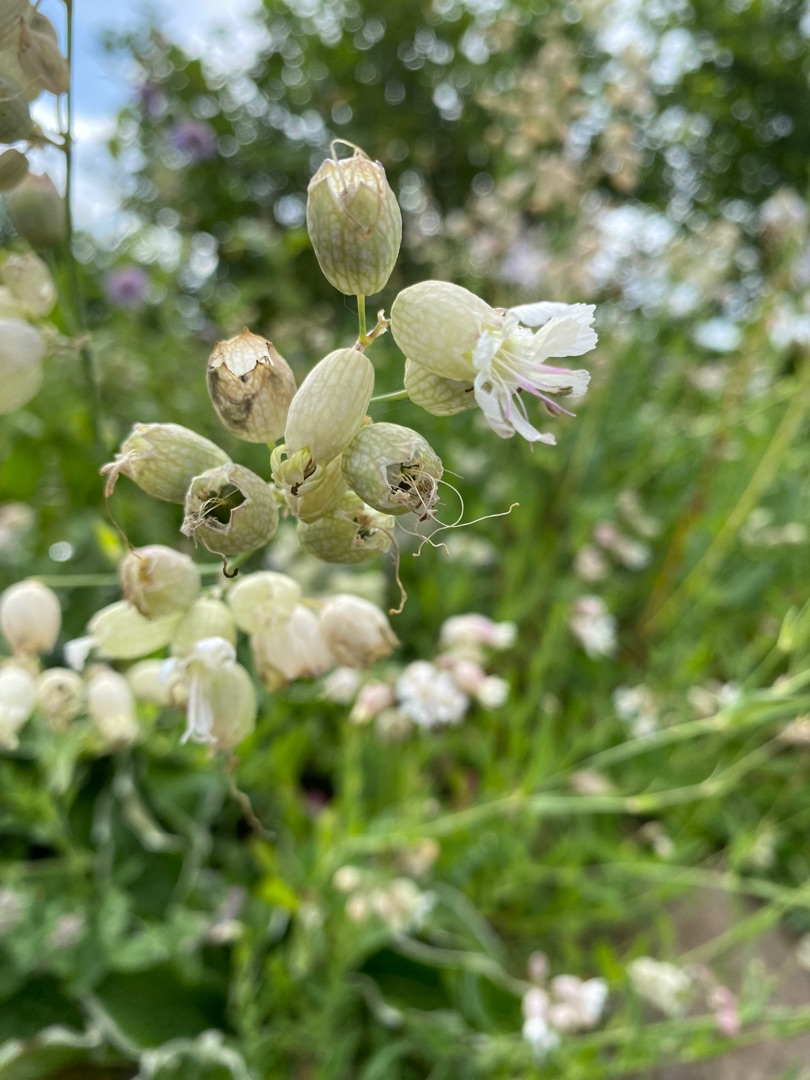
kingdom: Plantae
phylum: Tracheophyta
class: Magnoliopsida
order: Caryophyllales
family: Caryophyllaceae
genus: Silene
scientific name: Silene vulgaris
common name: Blæresmælde
